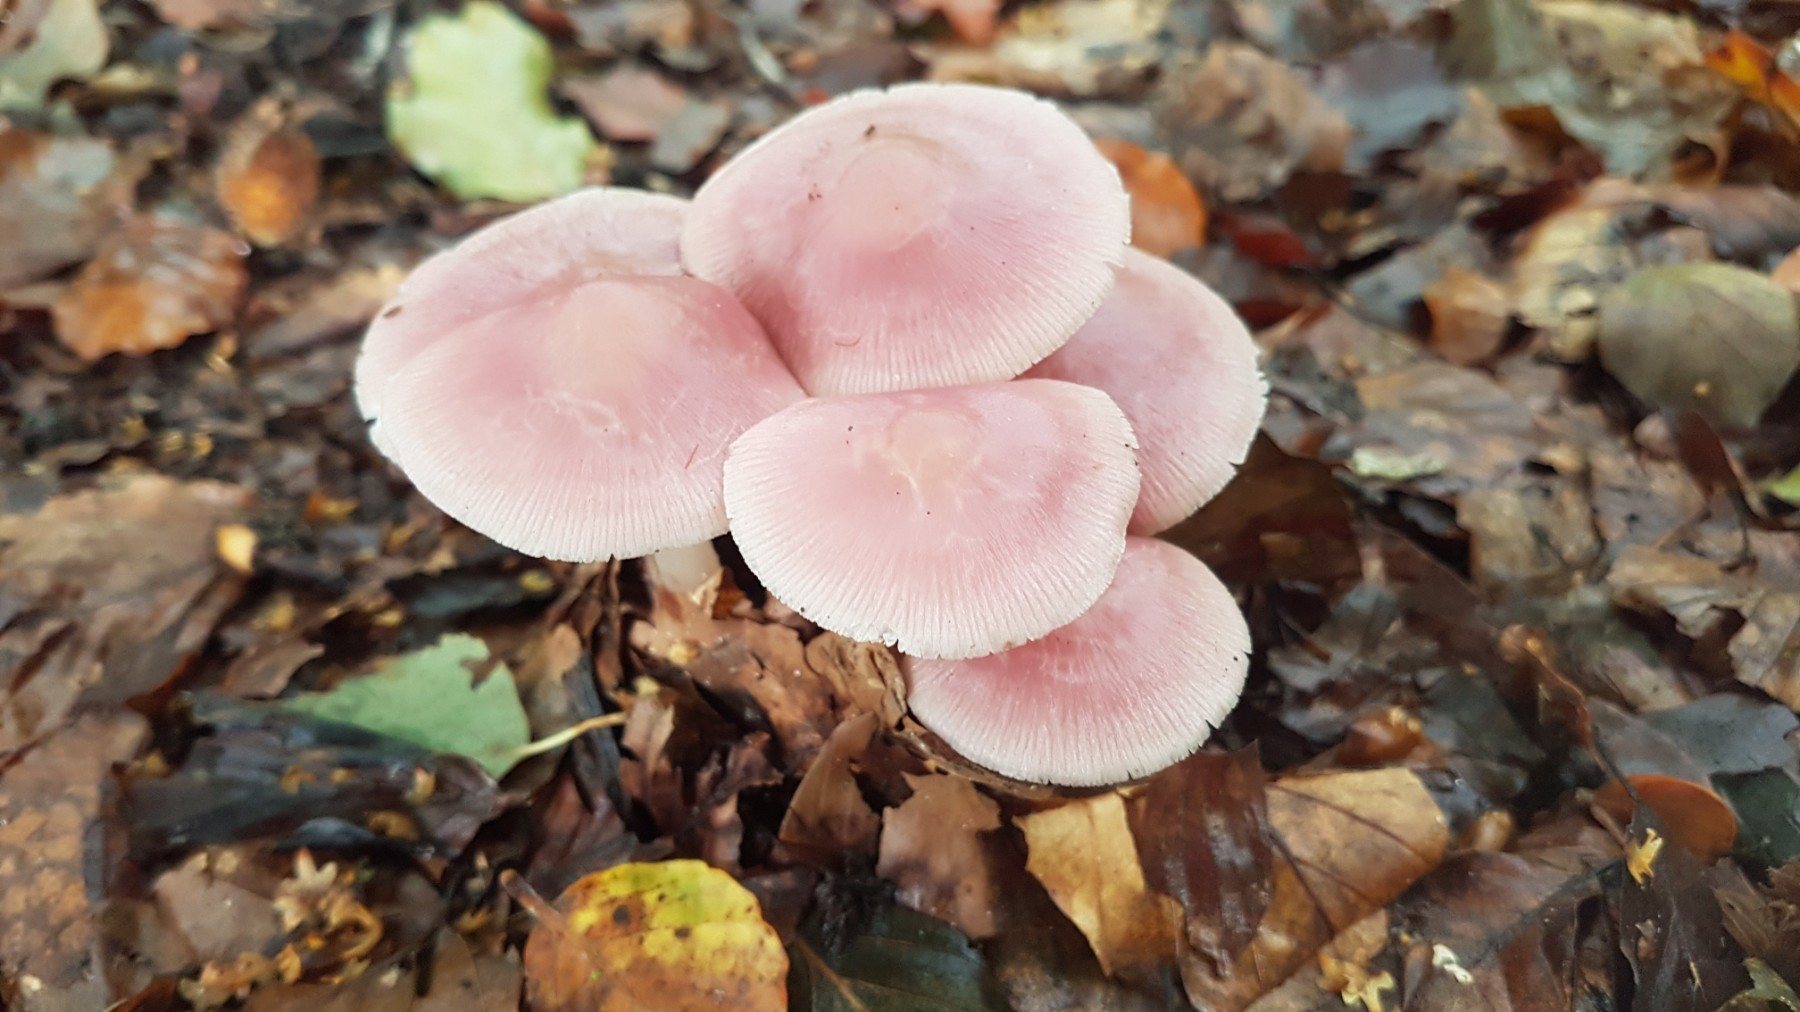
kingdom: Fungi
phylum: Basidiomycota
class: Agaricomycetes
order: Agaricales
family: Mycenaceae
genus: Mycena
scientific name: Mycena rosea
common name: rosa huesvamp
